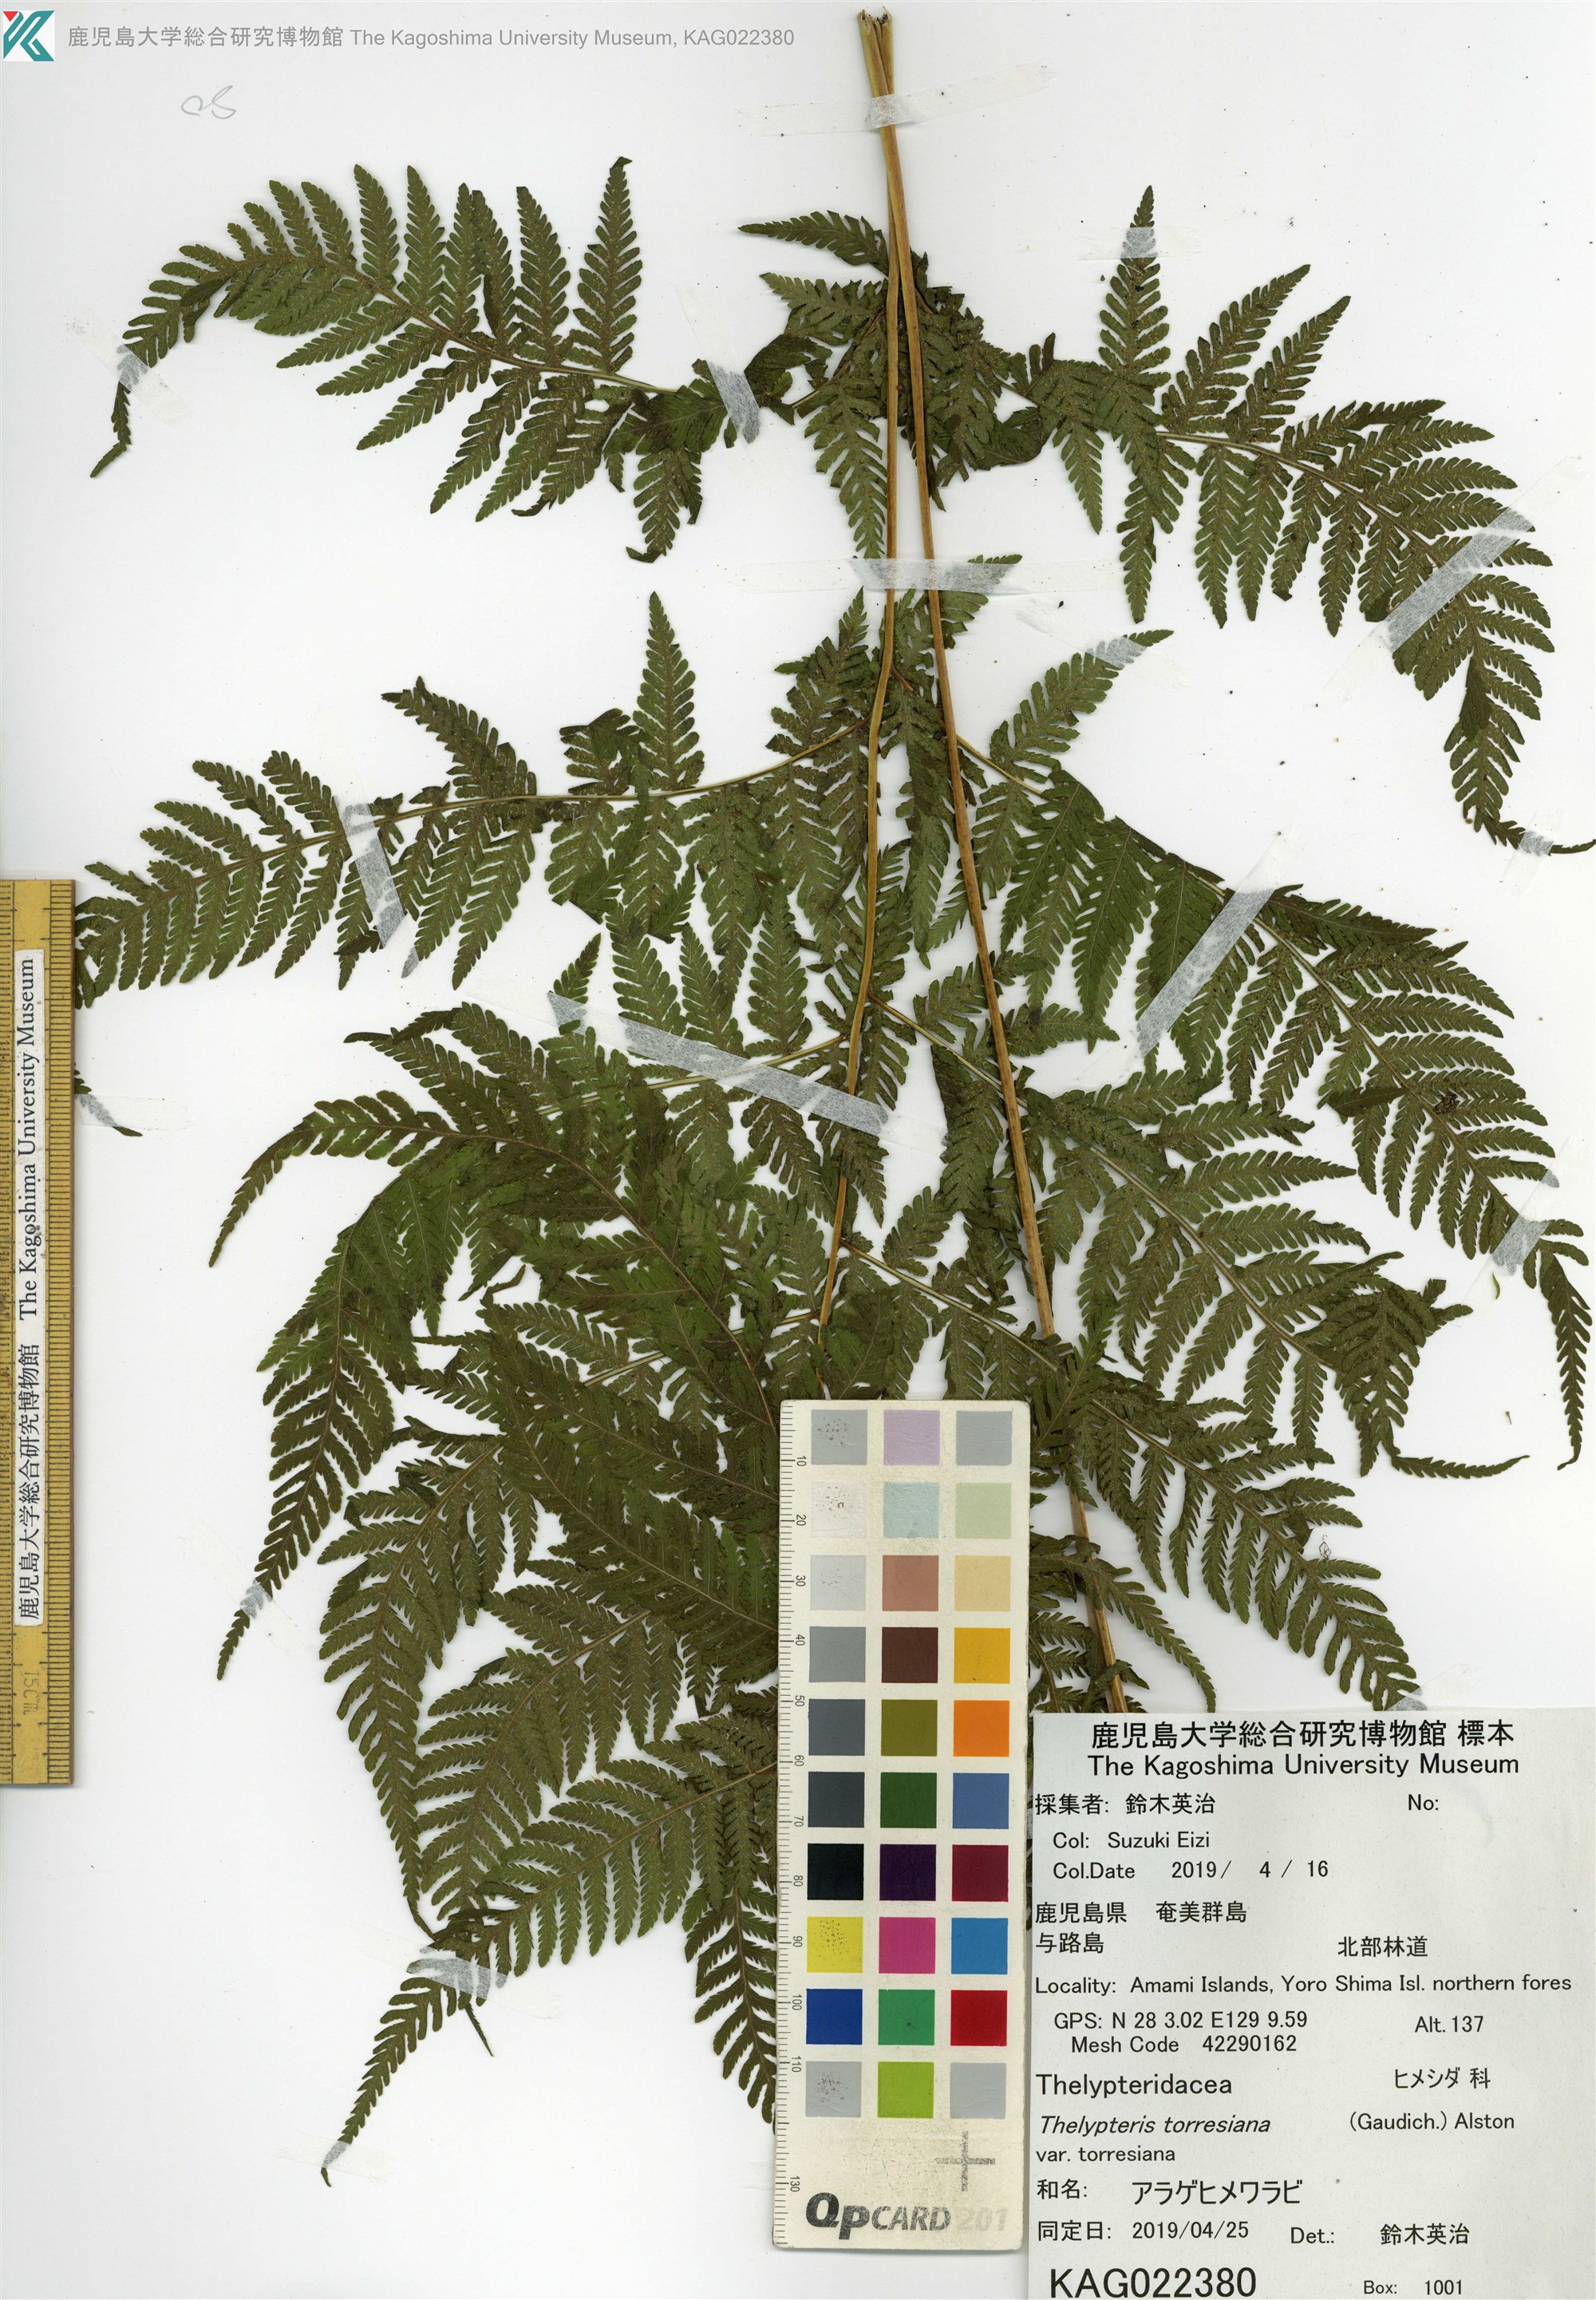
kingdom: Plantae
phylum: Tracheophyta
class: Polypodiopsida
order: Polypodiales
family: Thelypteridaceae
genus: Macrothelypteris
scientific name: Macrothelypteris torresiana
